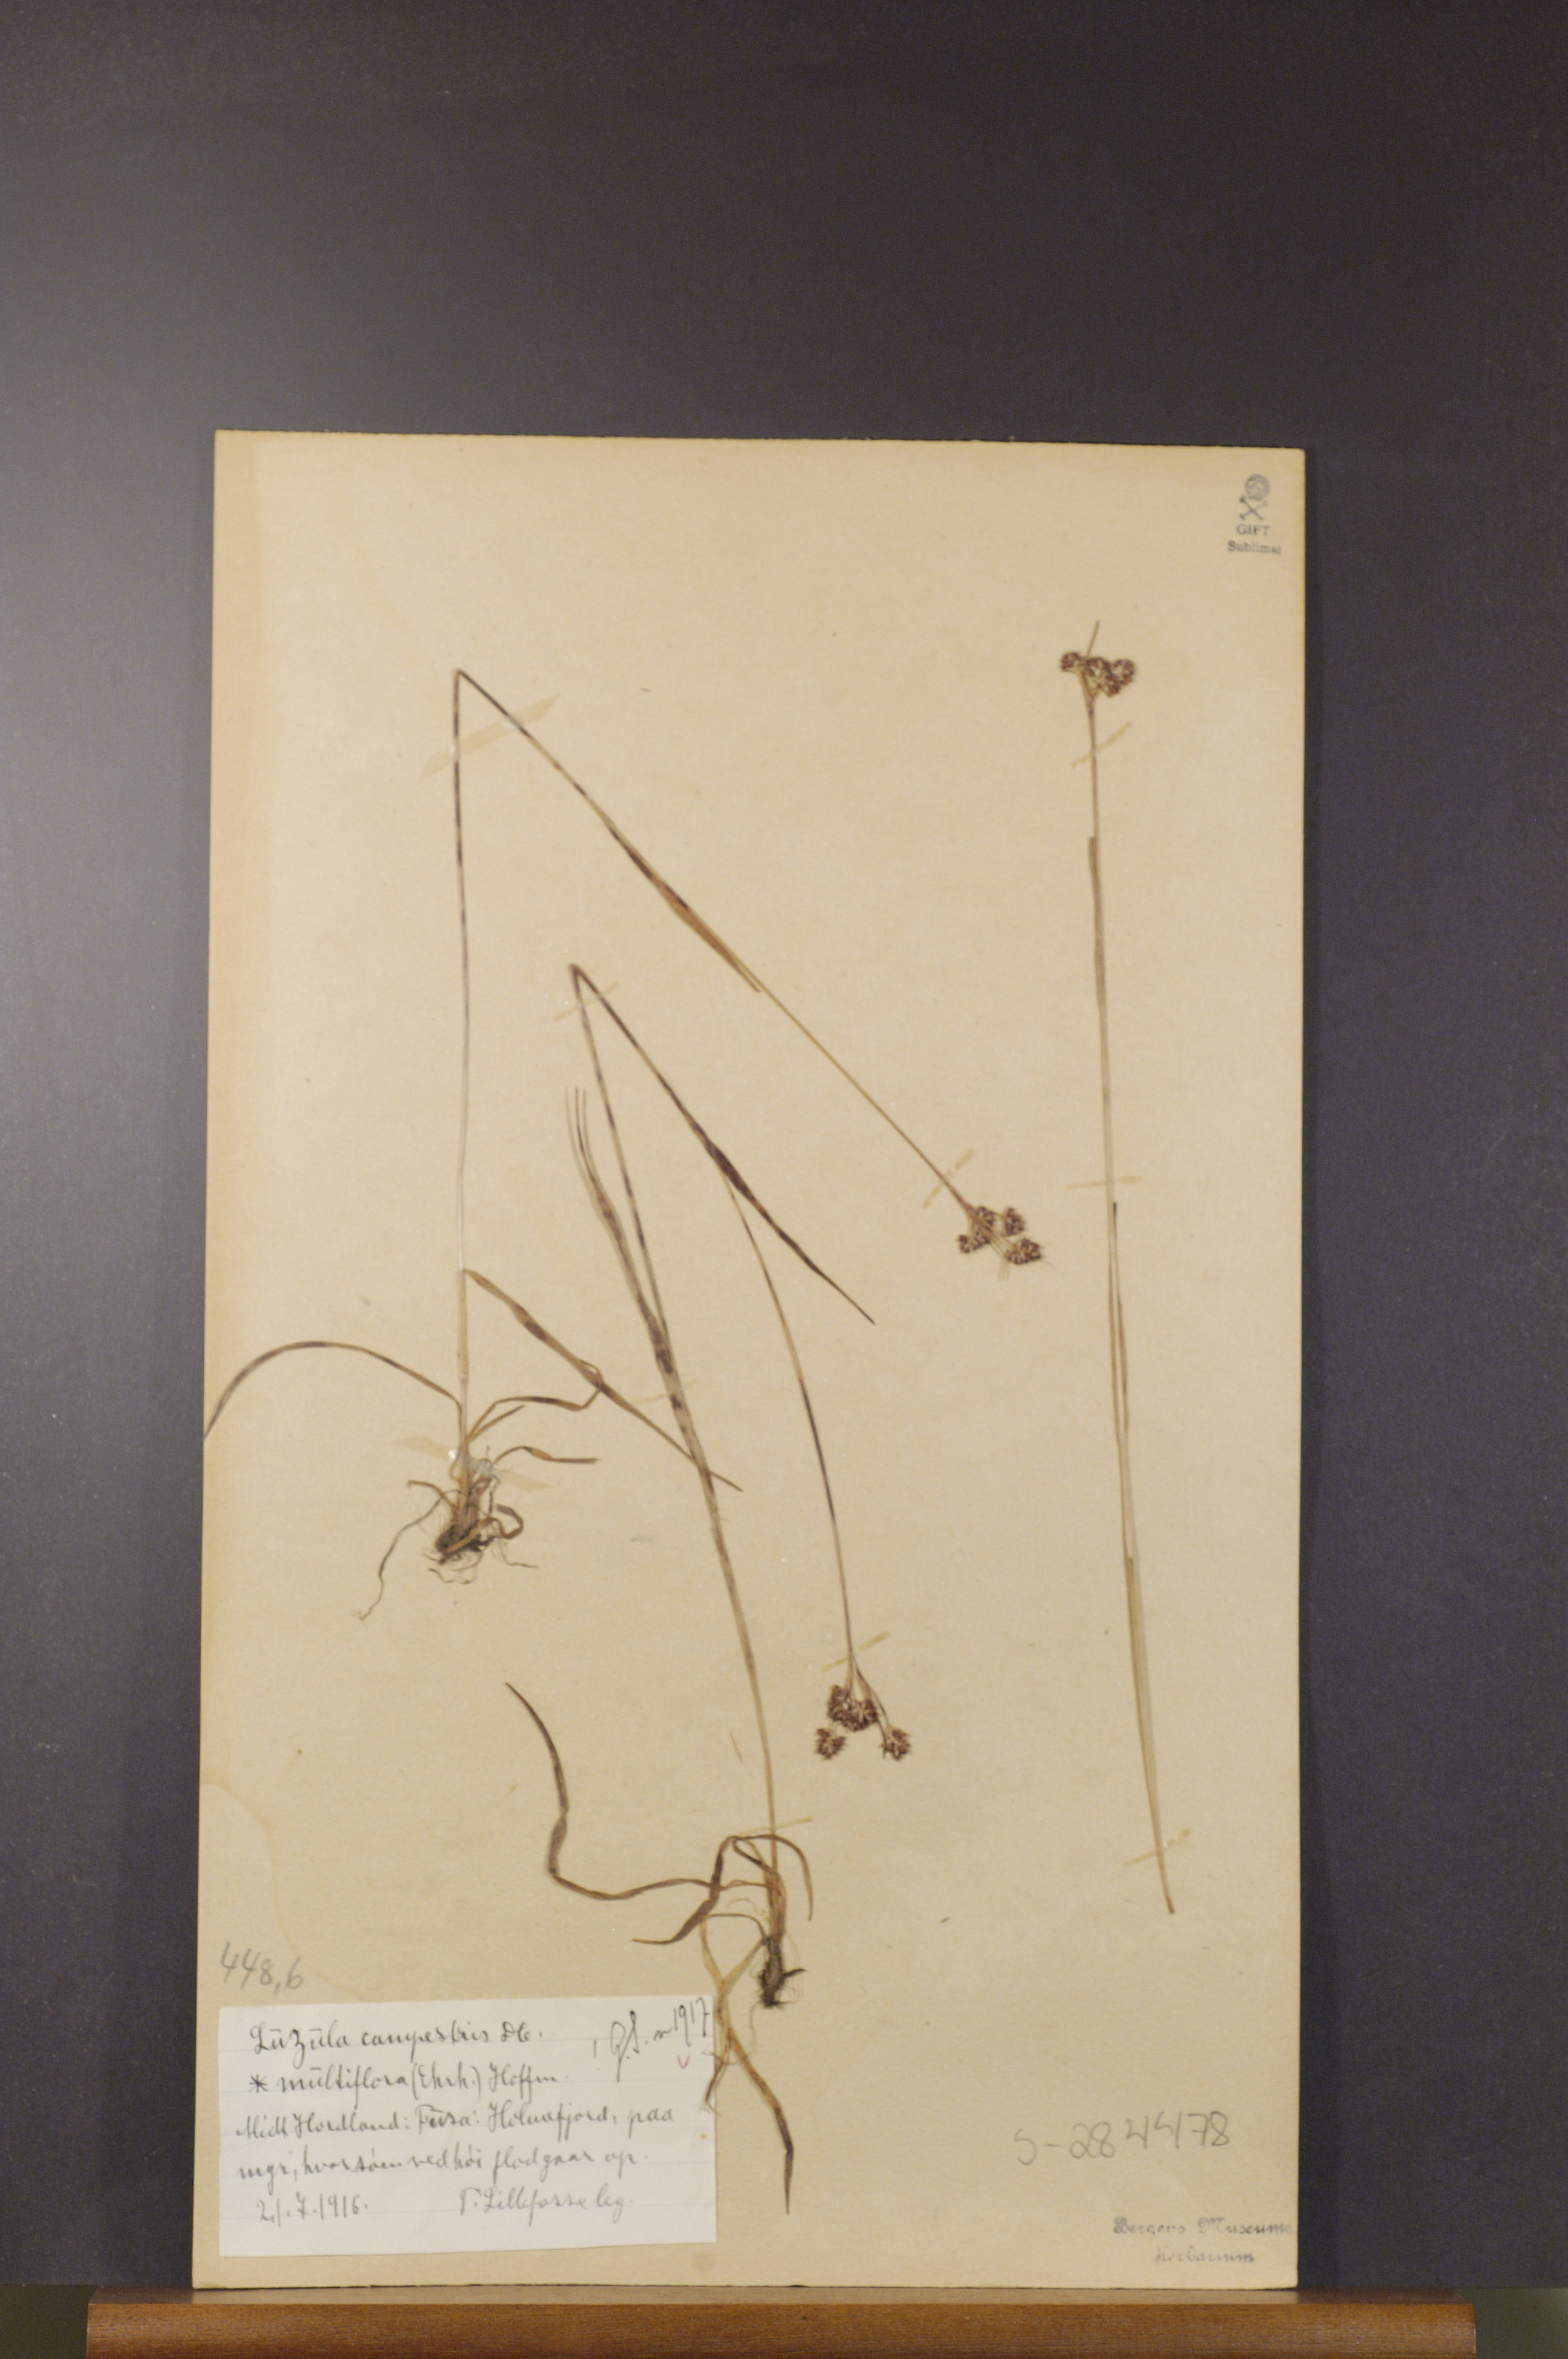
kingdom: Plantae
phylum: Tracheophyta
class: Liliopsida
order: Poales
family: Juncaceae
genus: Luzula
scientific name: Luzula multiflora
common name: Heath wood-rush
